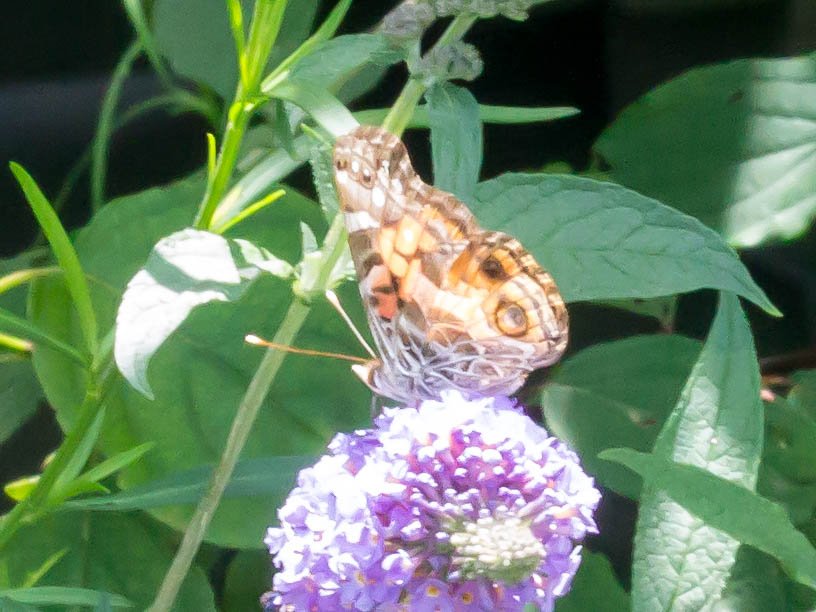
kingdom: Animalia
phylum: Arthropoda
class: Insecta
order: Lepidoptera
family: Nymphalidae
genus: Vanessa
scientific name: Vanessa virginiensis
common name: American Lady
